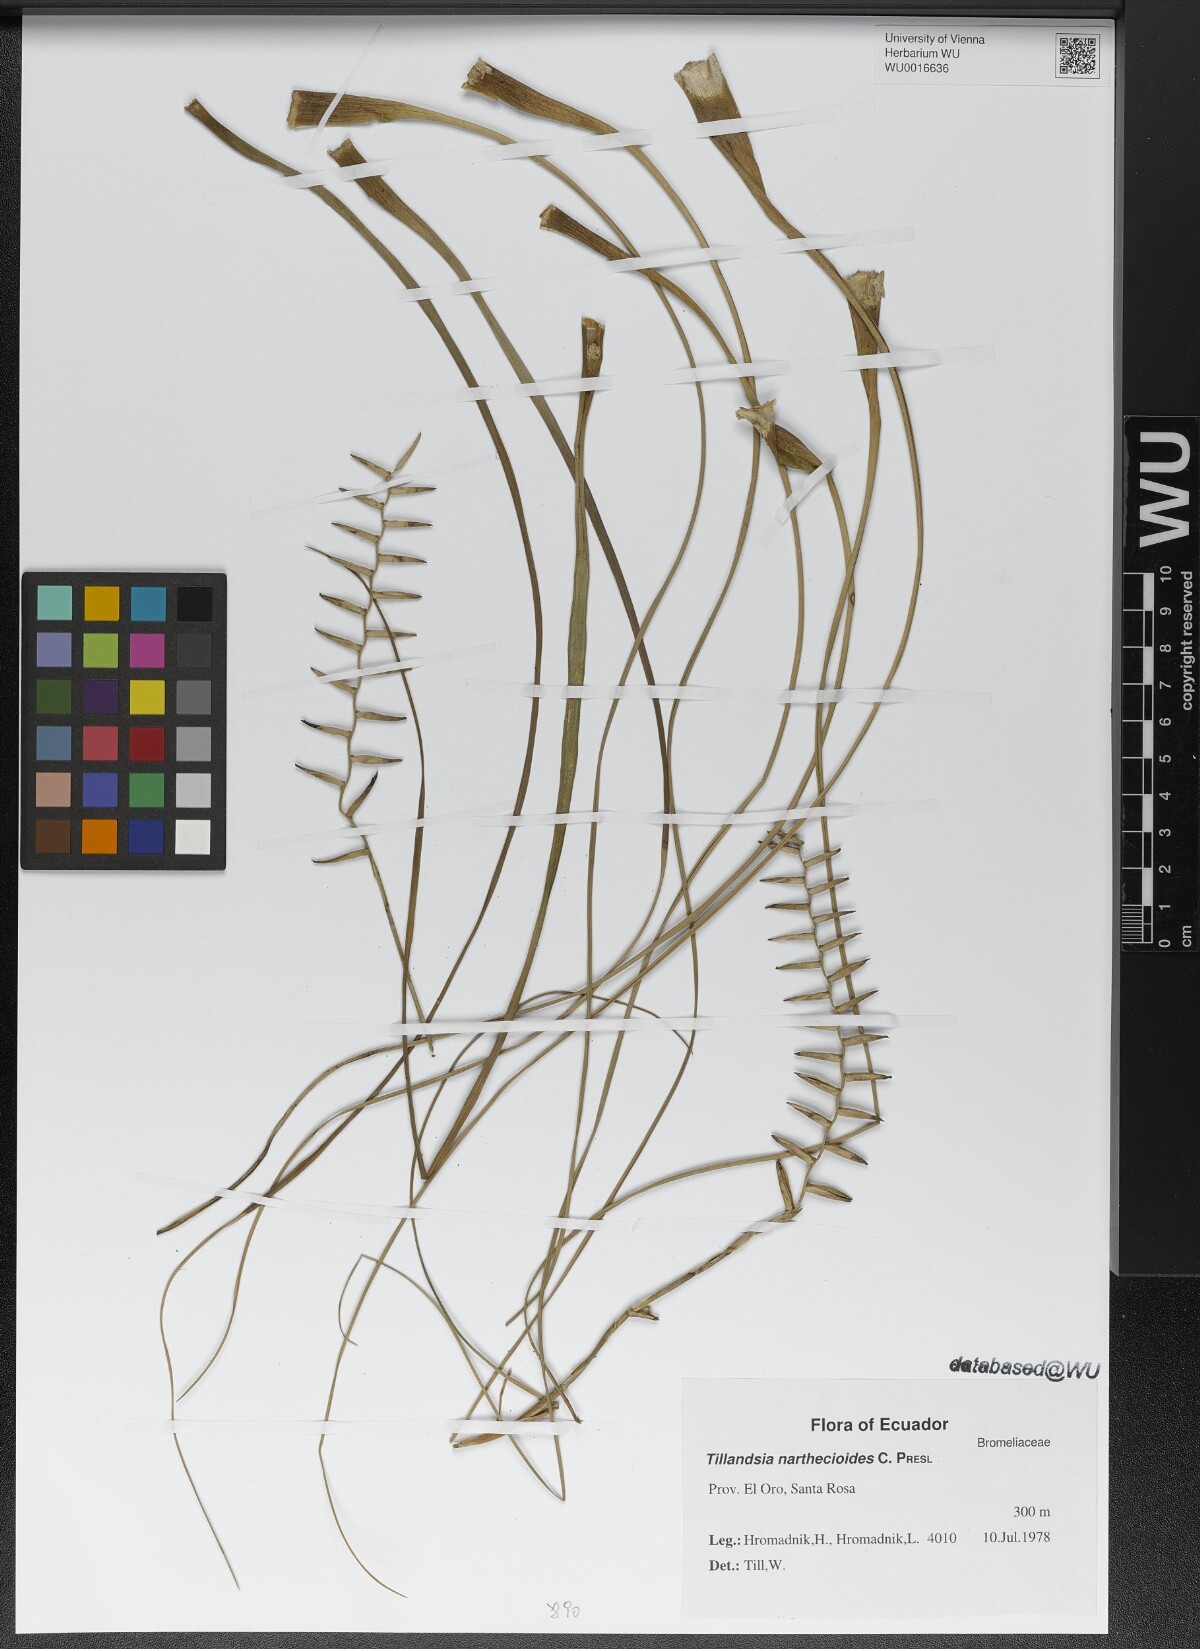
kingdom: Plantae
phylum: Tracheophyta
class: Liliopsida
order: Poales
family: Bromeliaceae
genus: Lemeltonia
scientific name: Lemeltonia narthecioides
